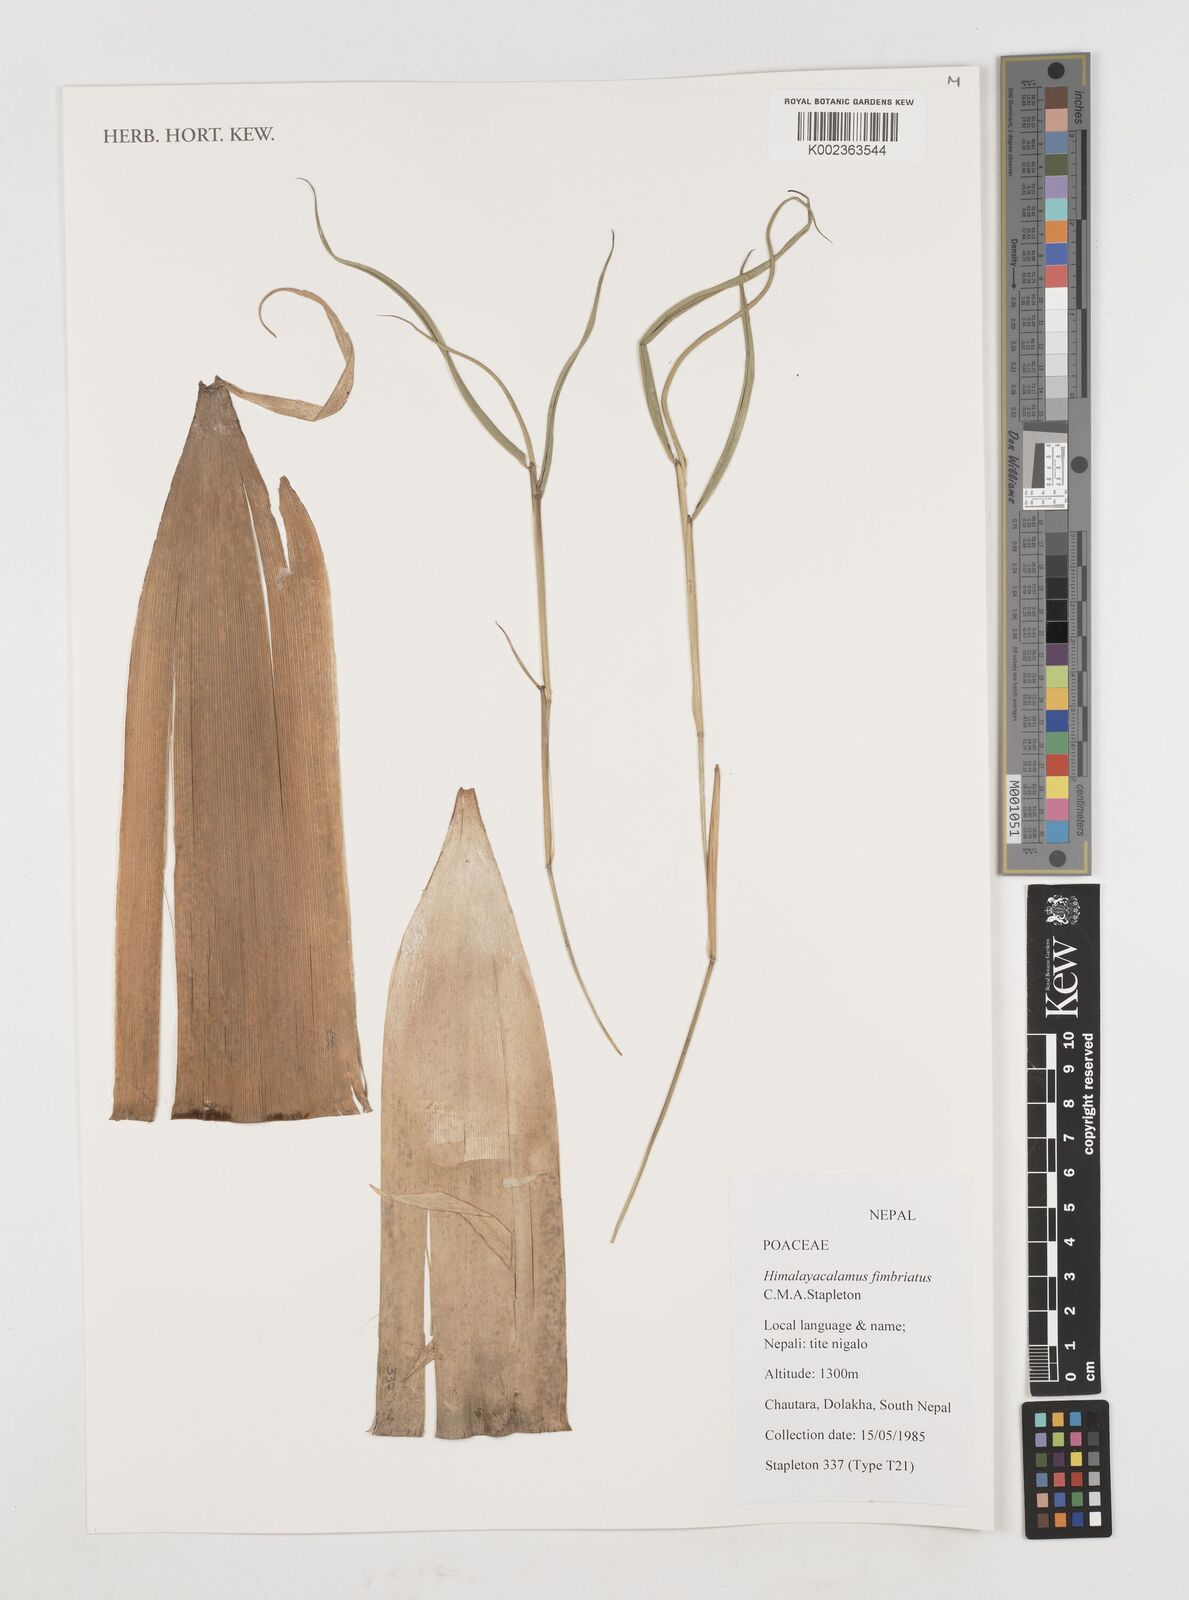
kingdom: Plantae
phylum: Tracheophyta
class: Liliopsida
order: Poales
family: Poaceae
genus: Himalayacalamus
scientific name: Himalayacalamus fimbriatus
